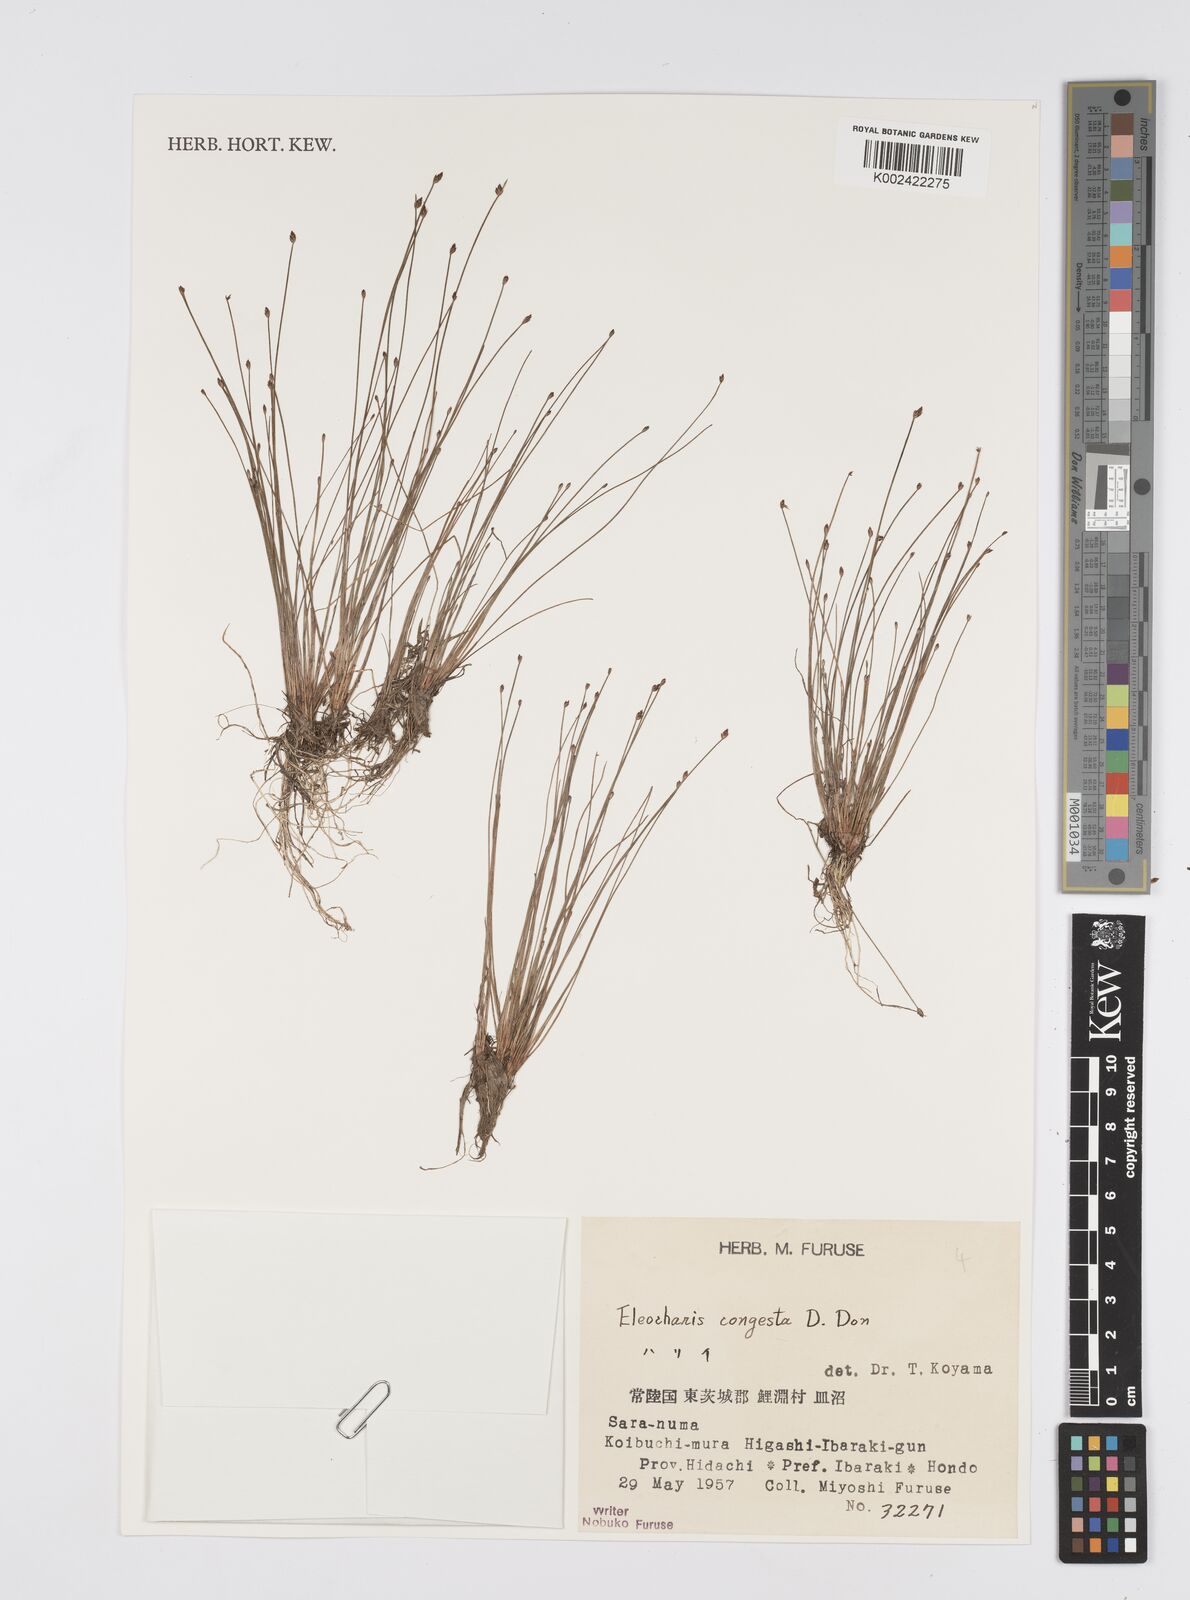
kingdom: Plantae
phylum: Tracheophyta
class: Liliopsida
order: Poales
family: Cyperaceae
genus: Eleocharis
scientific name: Eleocharis congesta
